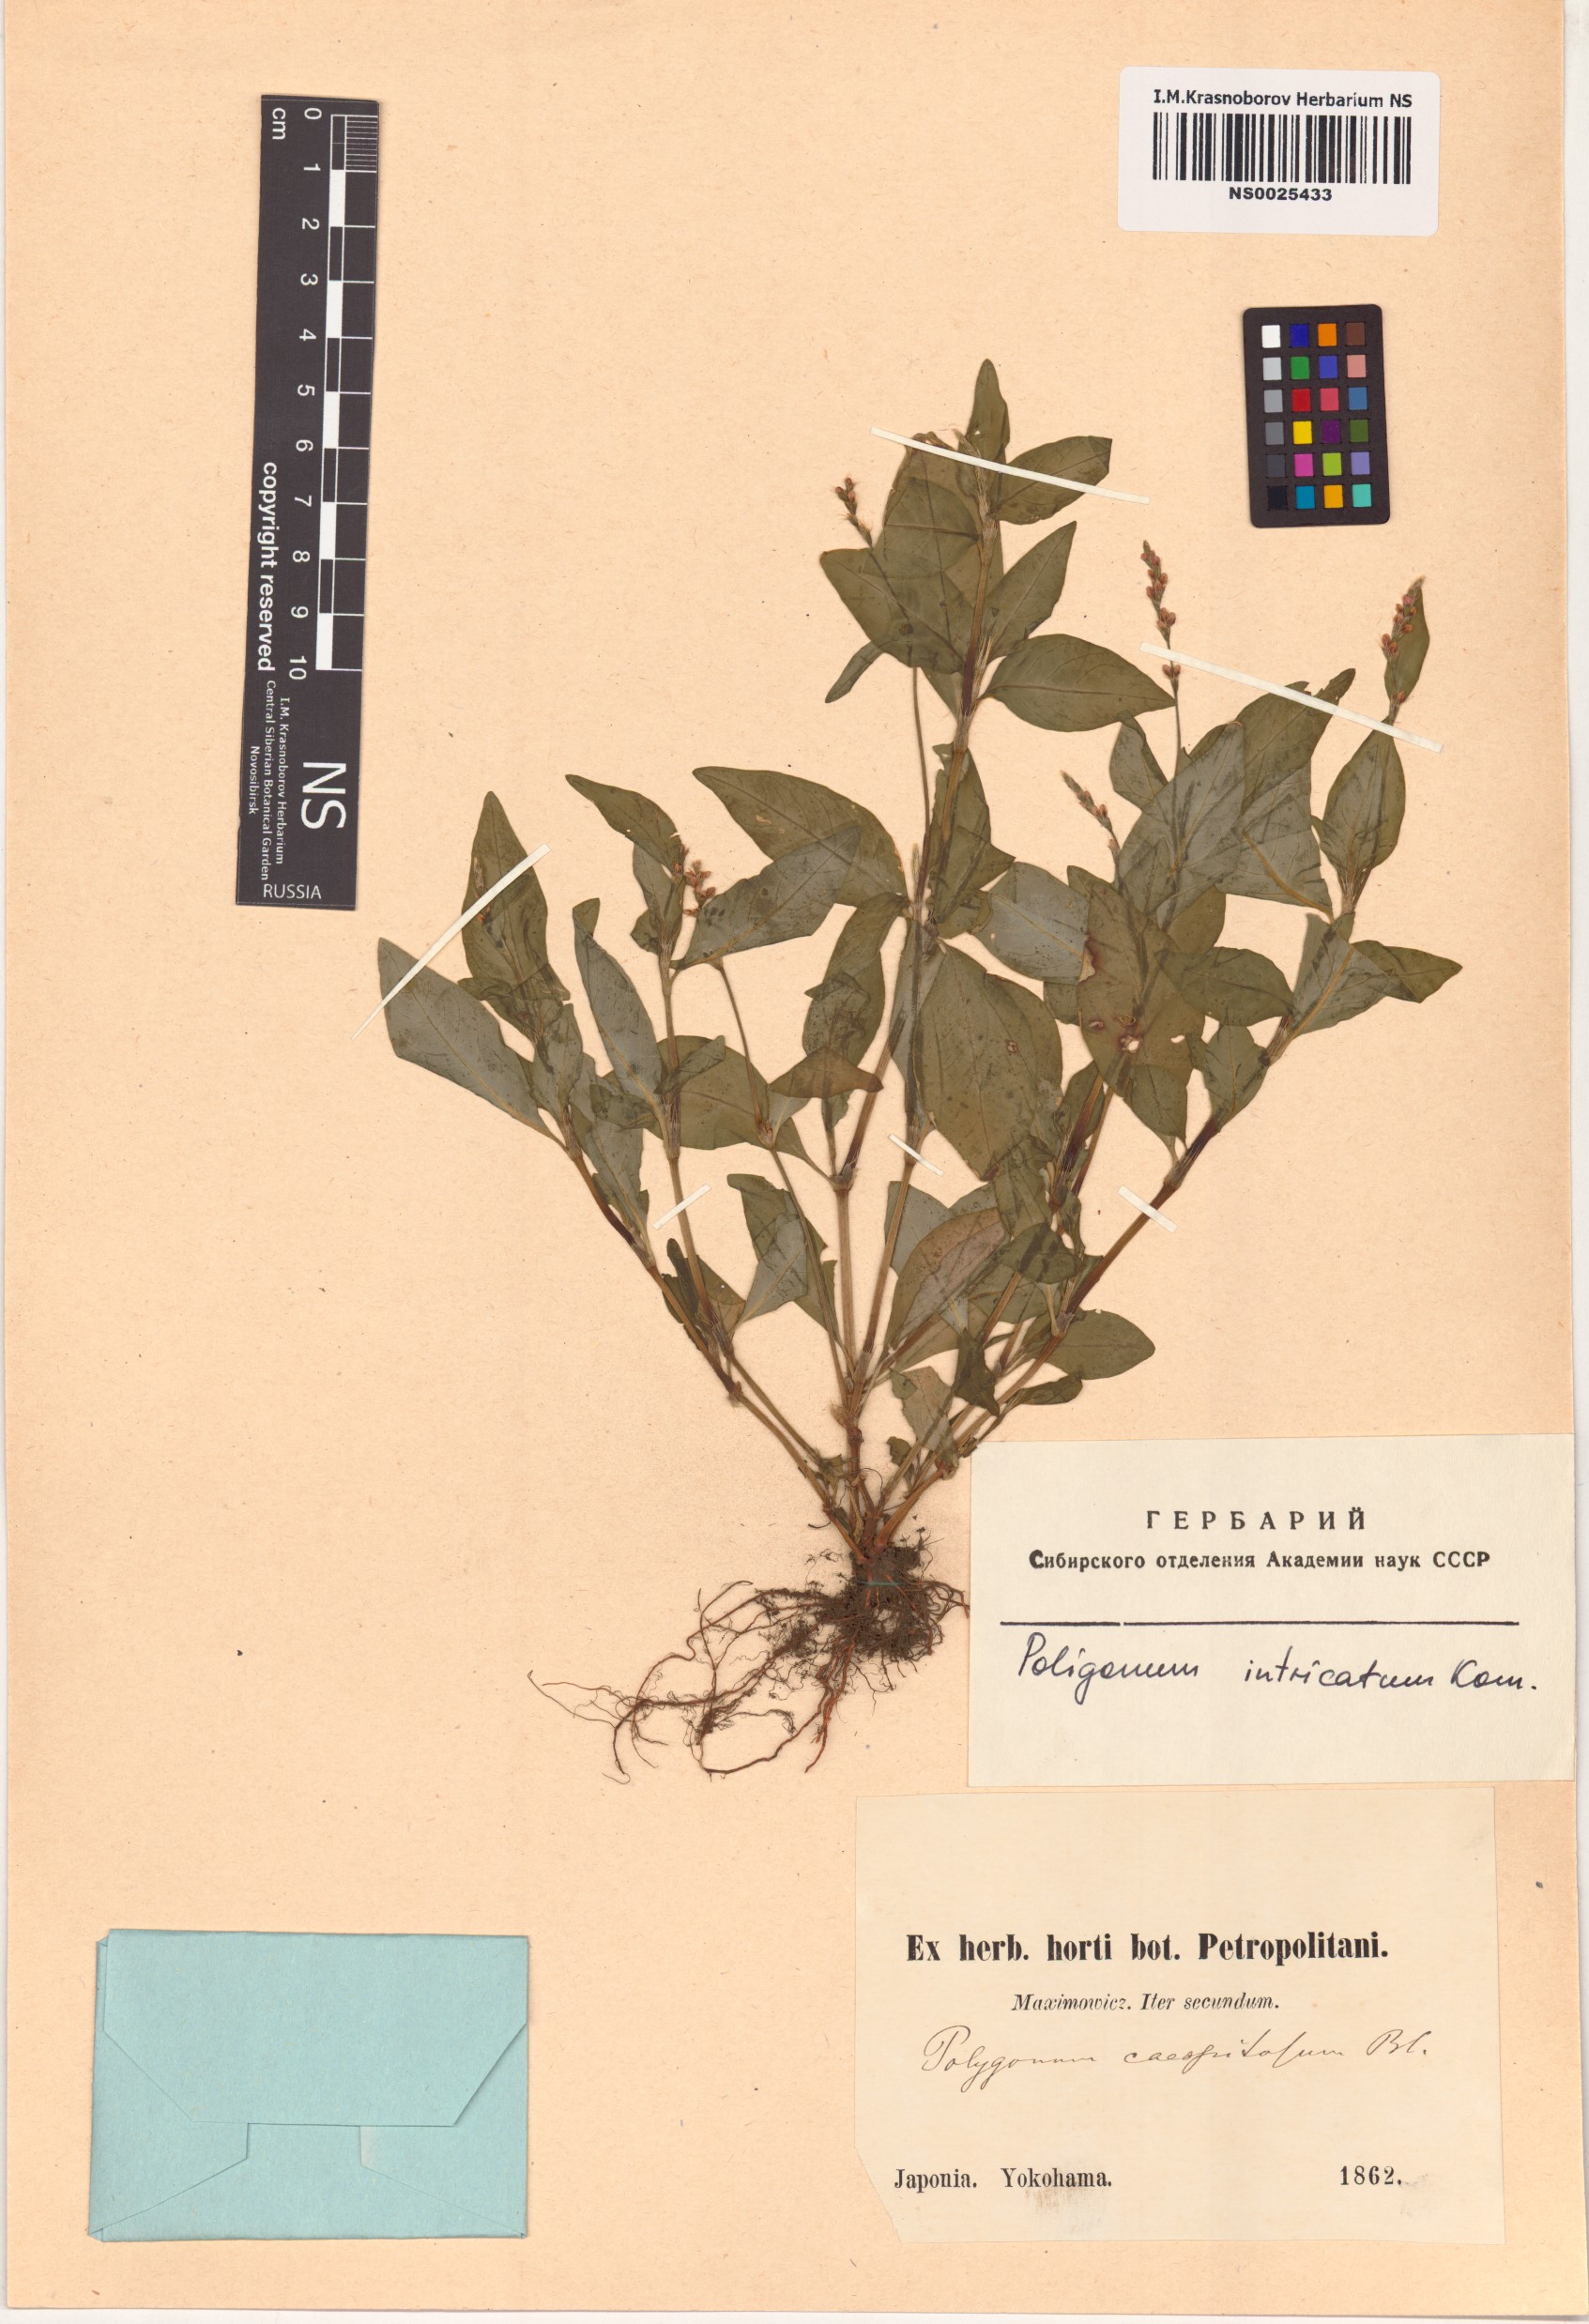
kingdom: Plantae
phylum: Tracheophyta
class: Magnoliopsida
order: Caryophyllales
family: Polygonaceae
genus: Persicaria
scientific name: Persicaria longiseta
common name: Bristly lady's-thumb
